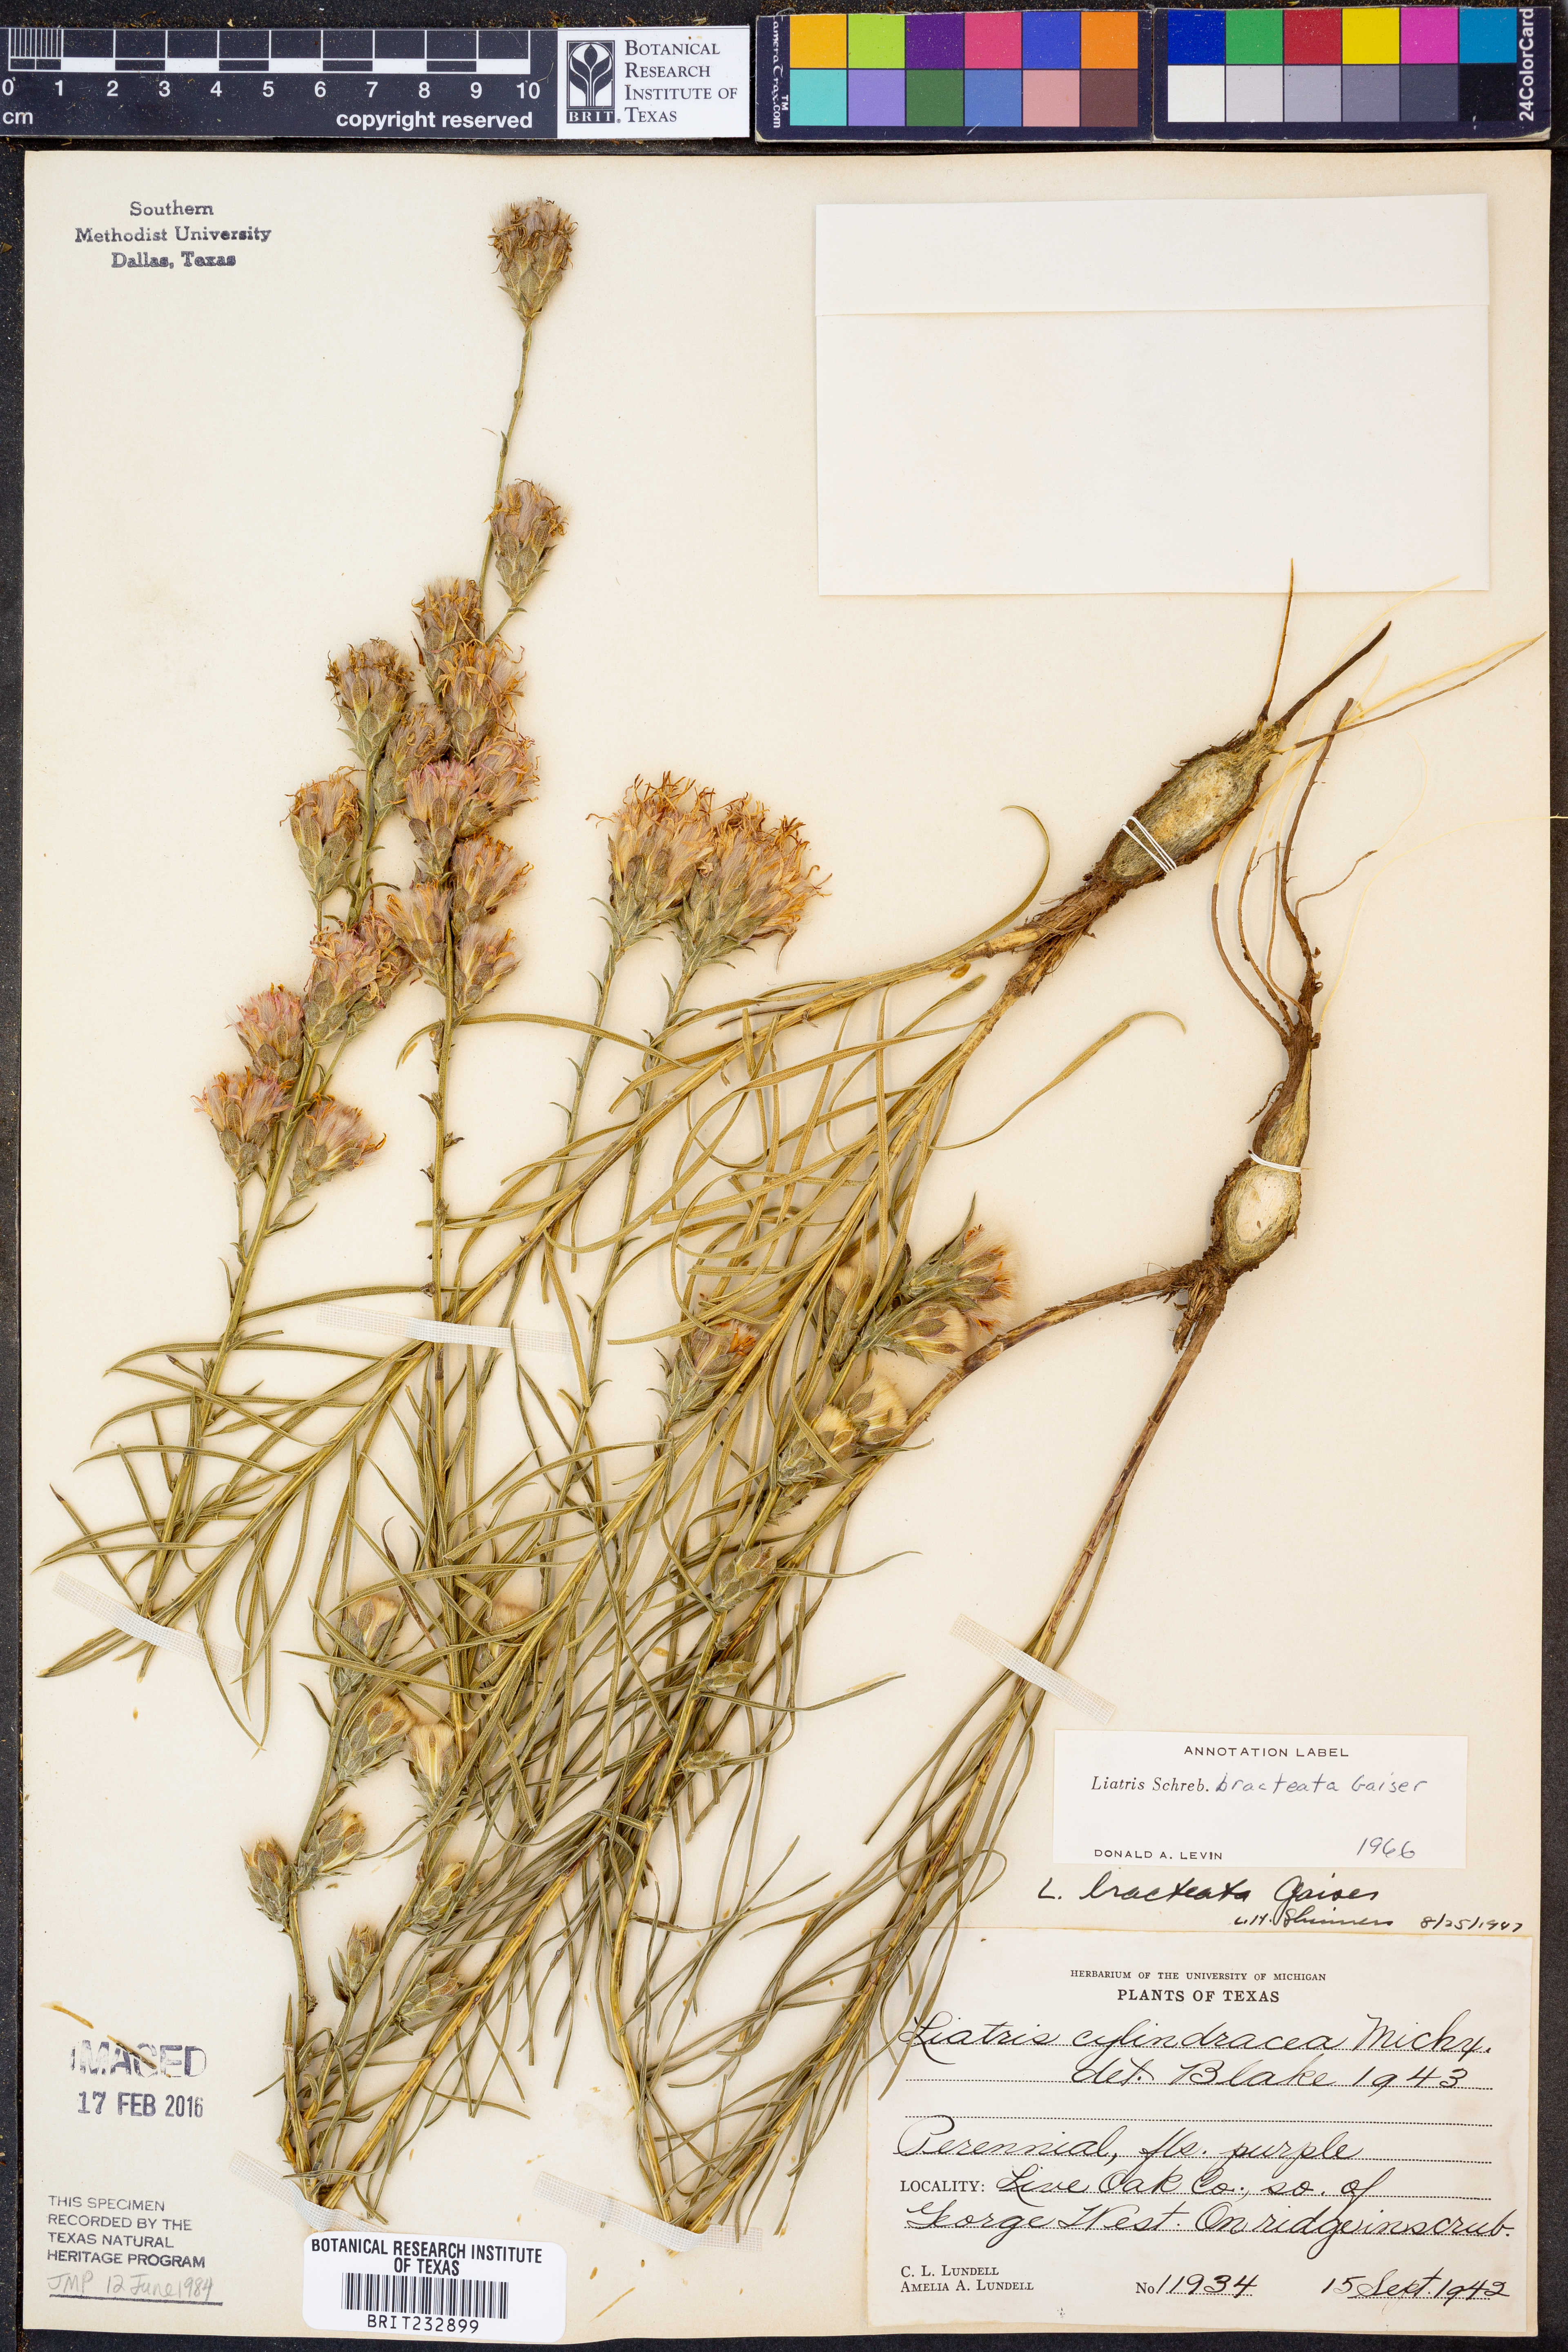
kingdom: Plantae
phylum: Tracheophyta
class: Magnoliopsida
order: Asterales
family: Asteraceae
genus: Liatris
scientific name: Liatris bracteata
